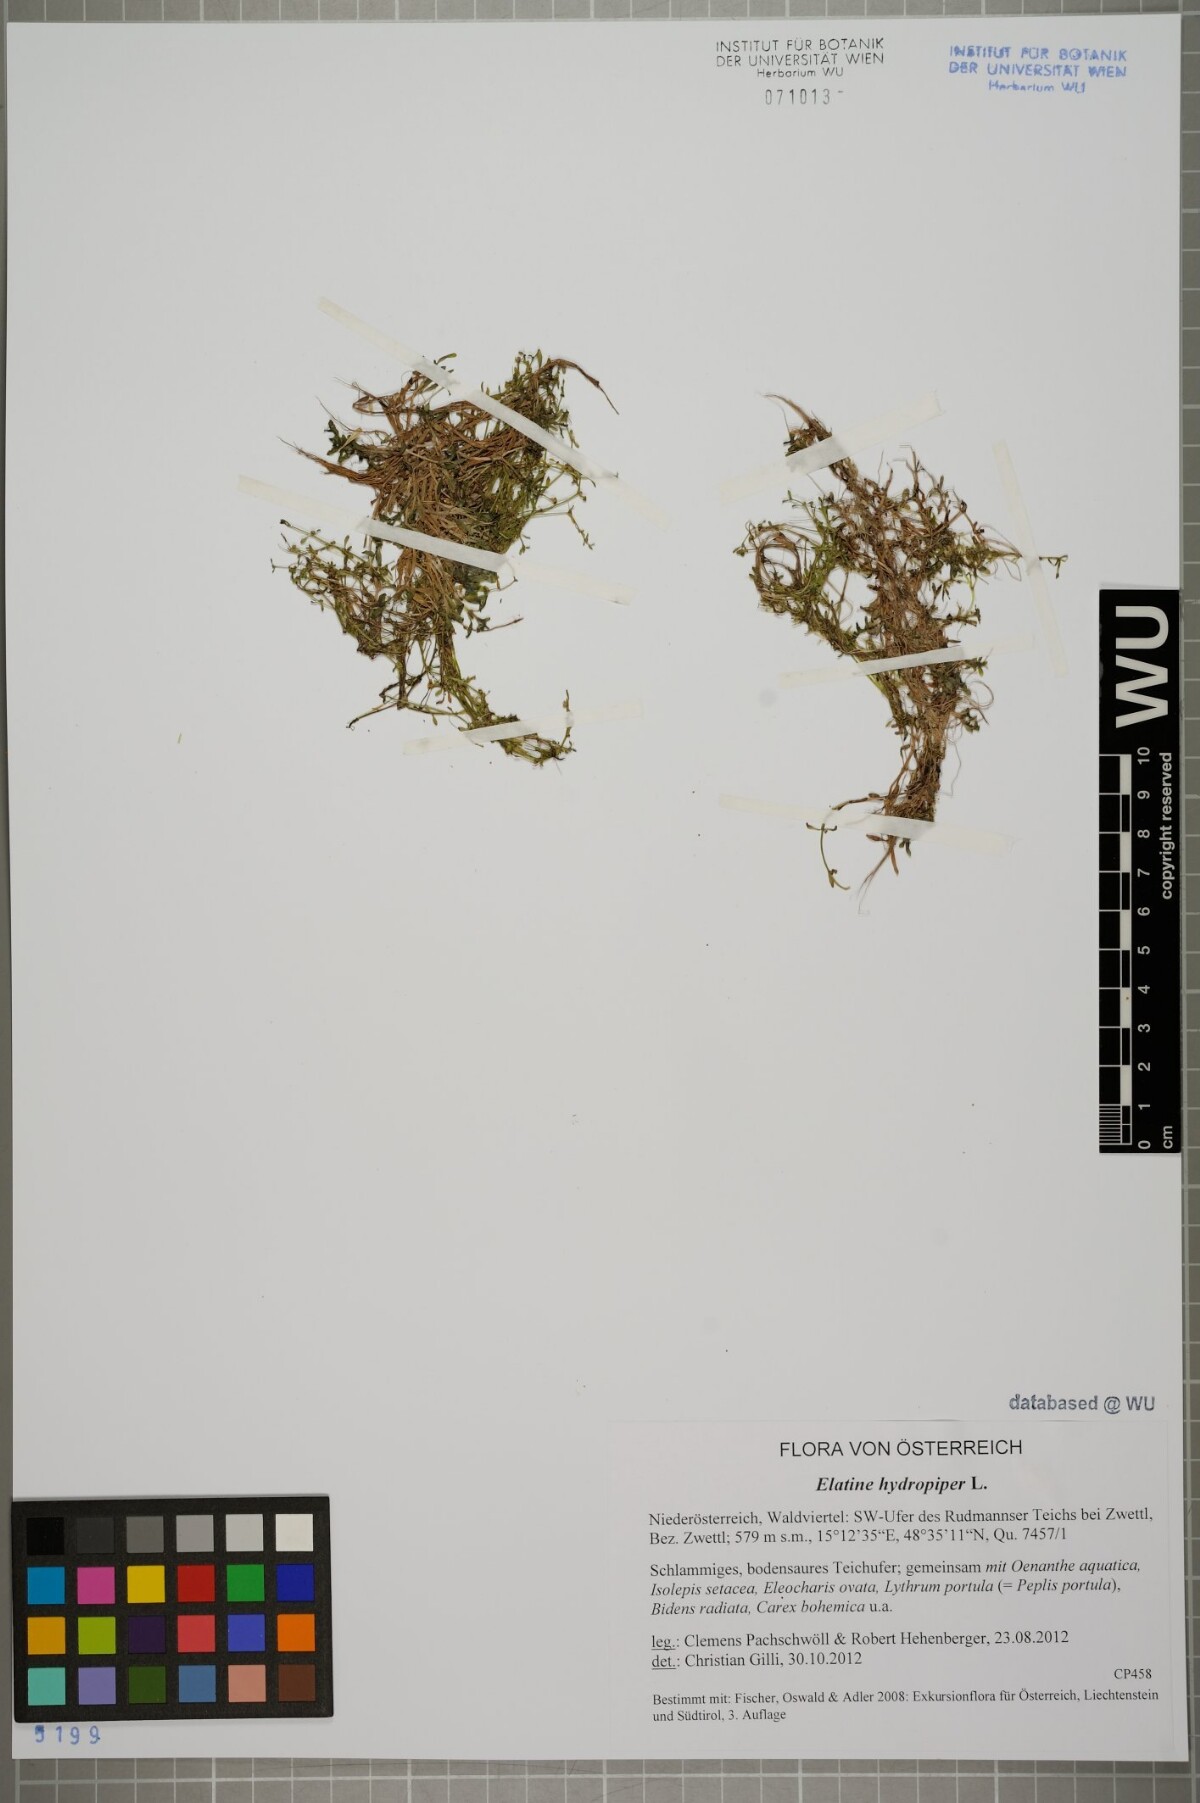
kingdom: Plantae
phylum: Tracheophyta
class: Magnoliopsida
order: Malpighiales
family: Elatinaceae
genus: Elatine
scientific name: Elatine hydropiper
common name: Eight-stamened waterwort
